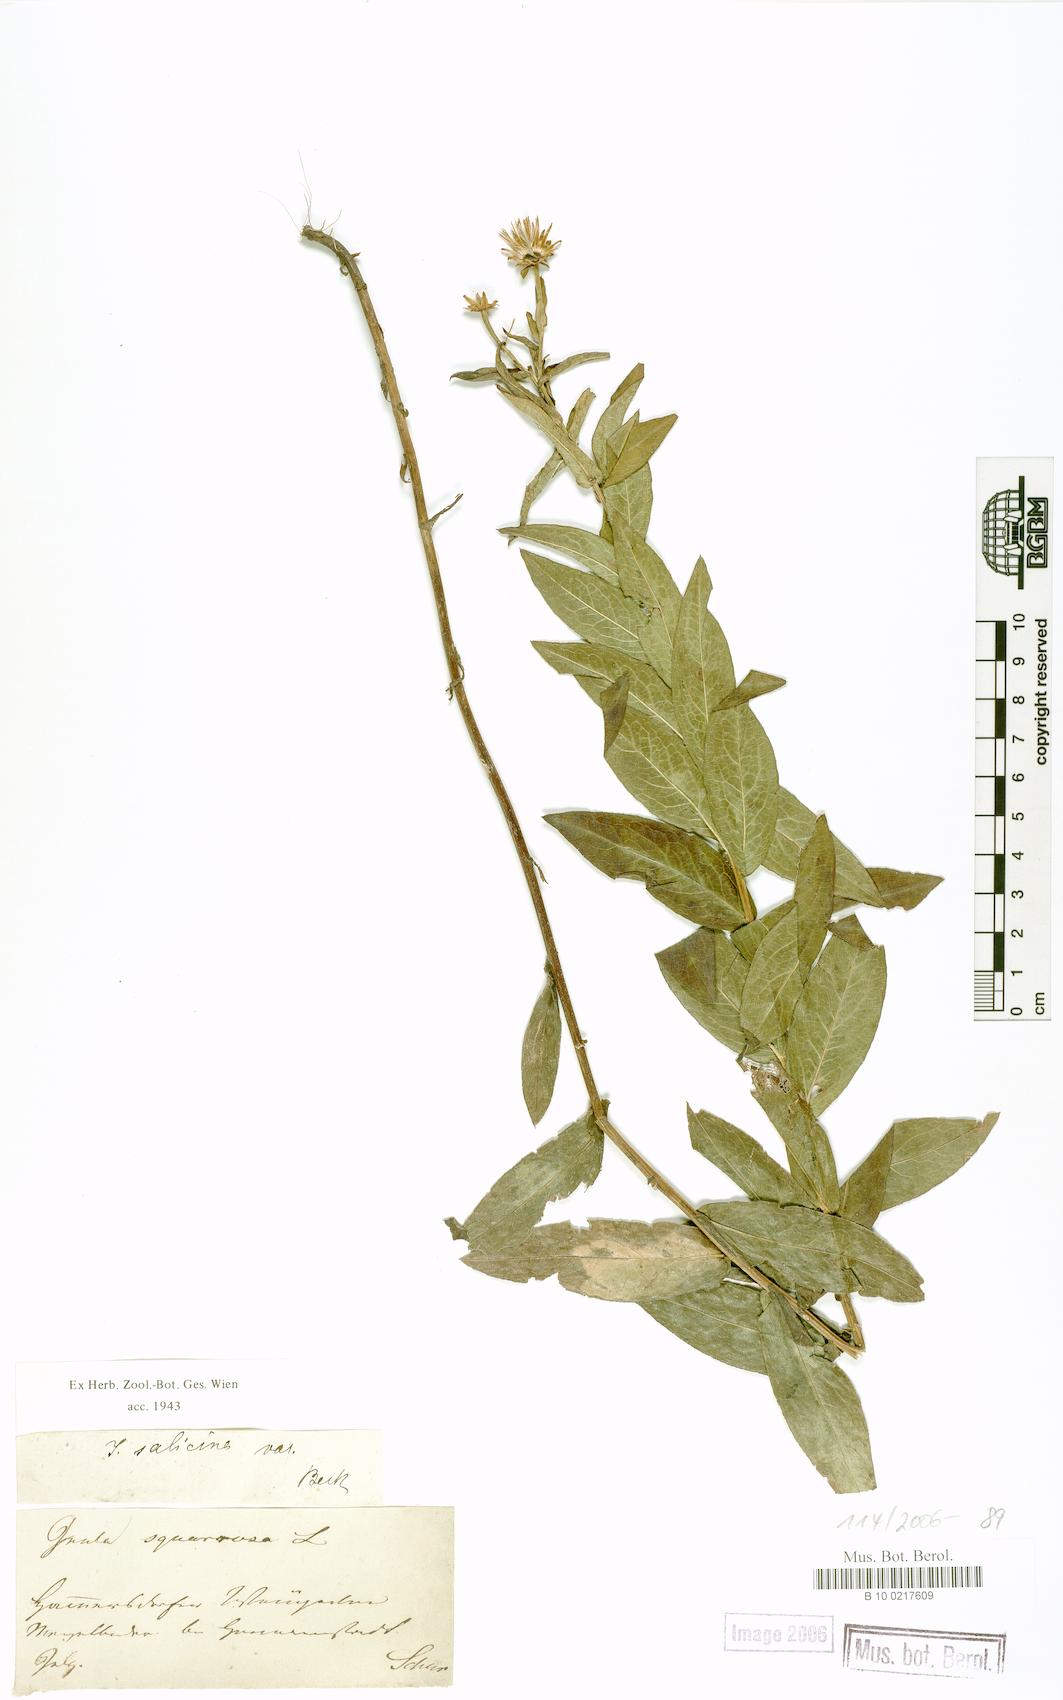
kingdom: Plantae
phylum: Tracheophyta
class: Magnoliopsida
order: Asterales
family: Asteraceae
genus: Pentanema
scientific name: Pentanema salicinum
